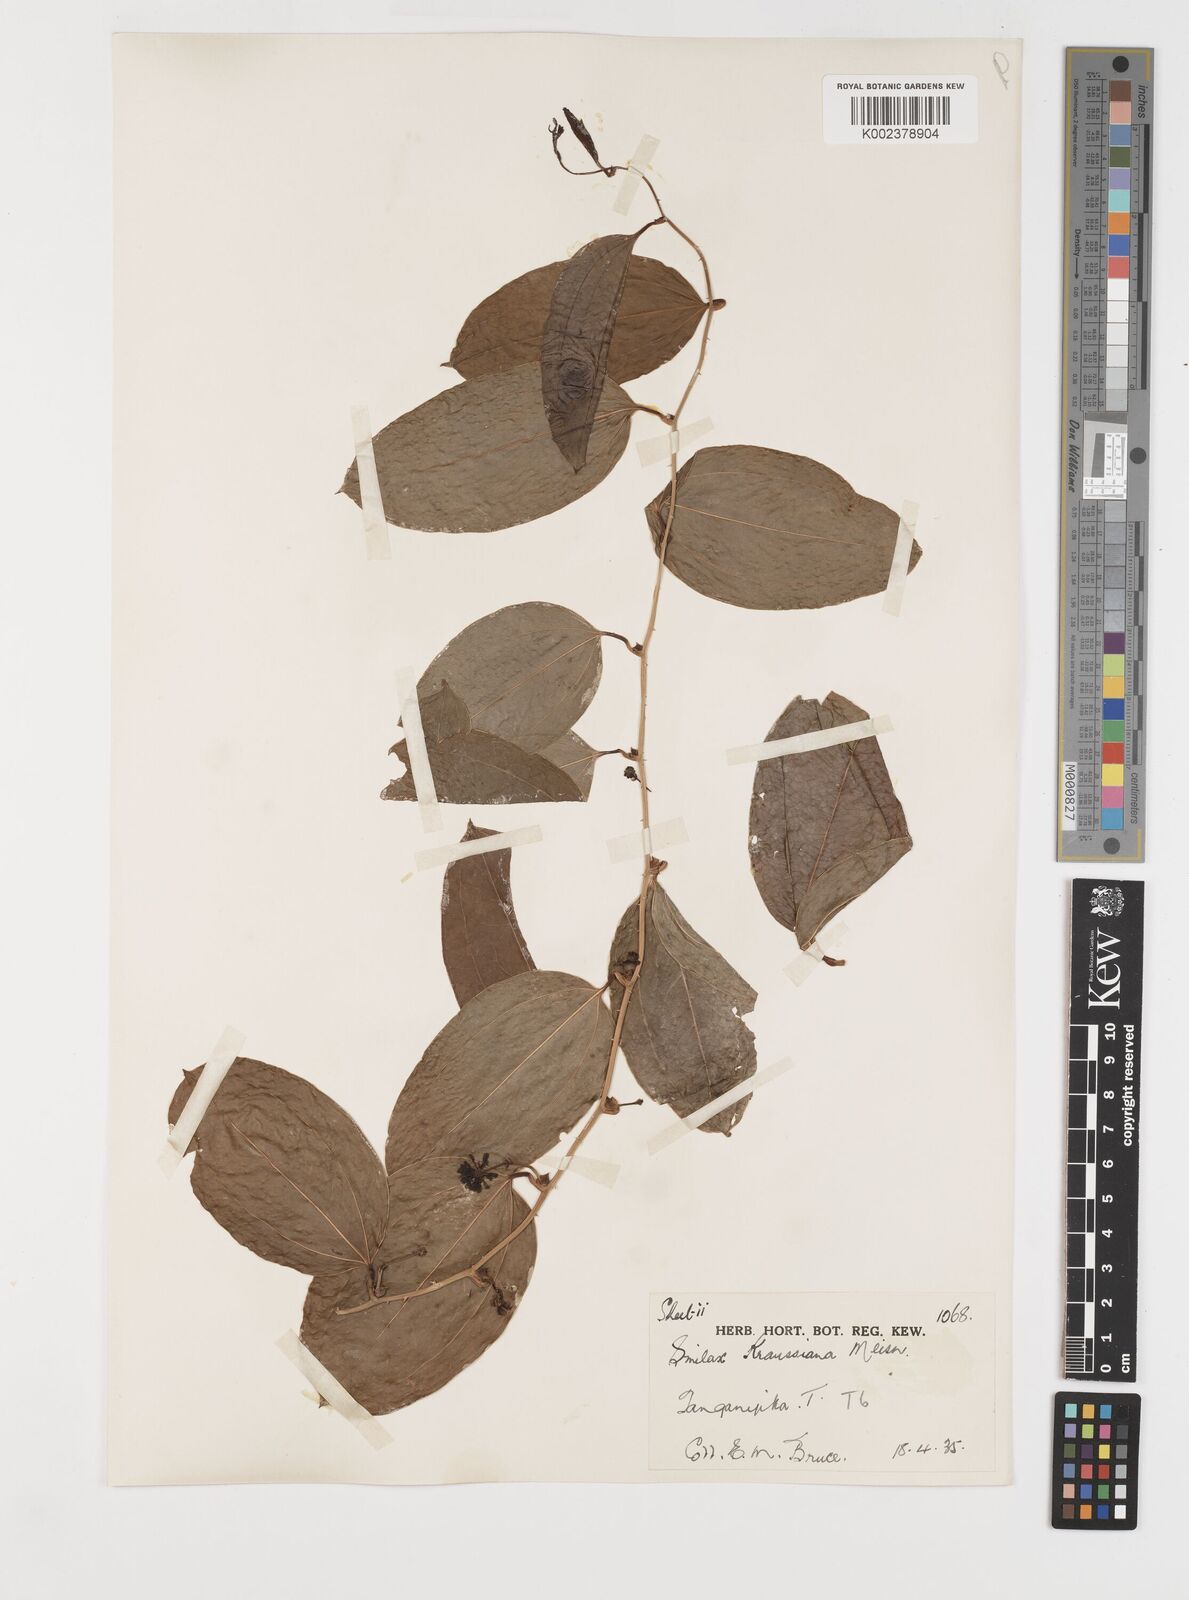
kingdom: Plantae
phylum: Tracheophyta
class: Liliopsida
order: Liliales
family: Smilacaceae
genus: Smilax
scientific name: Smilax anceps
